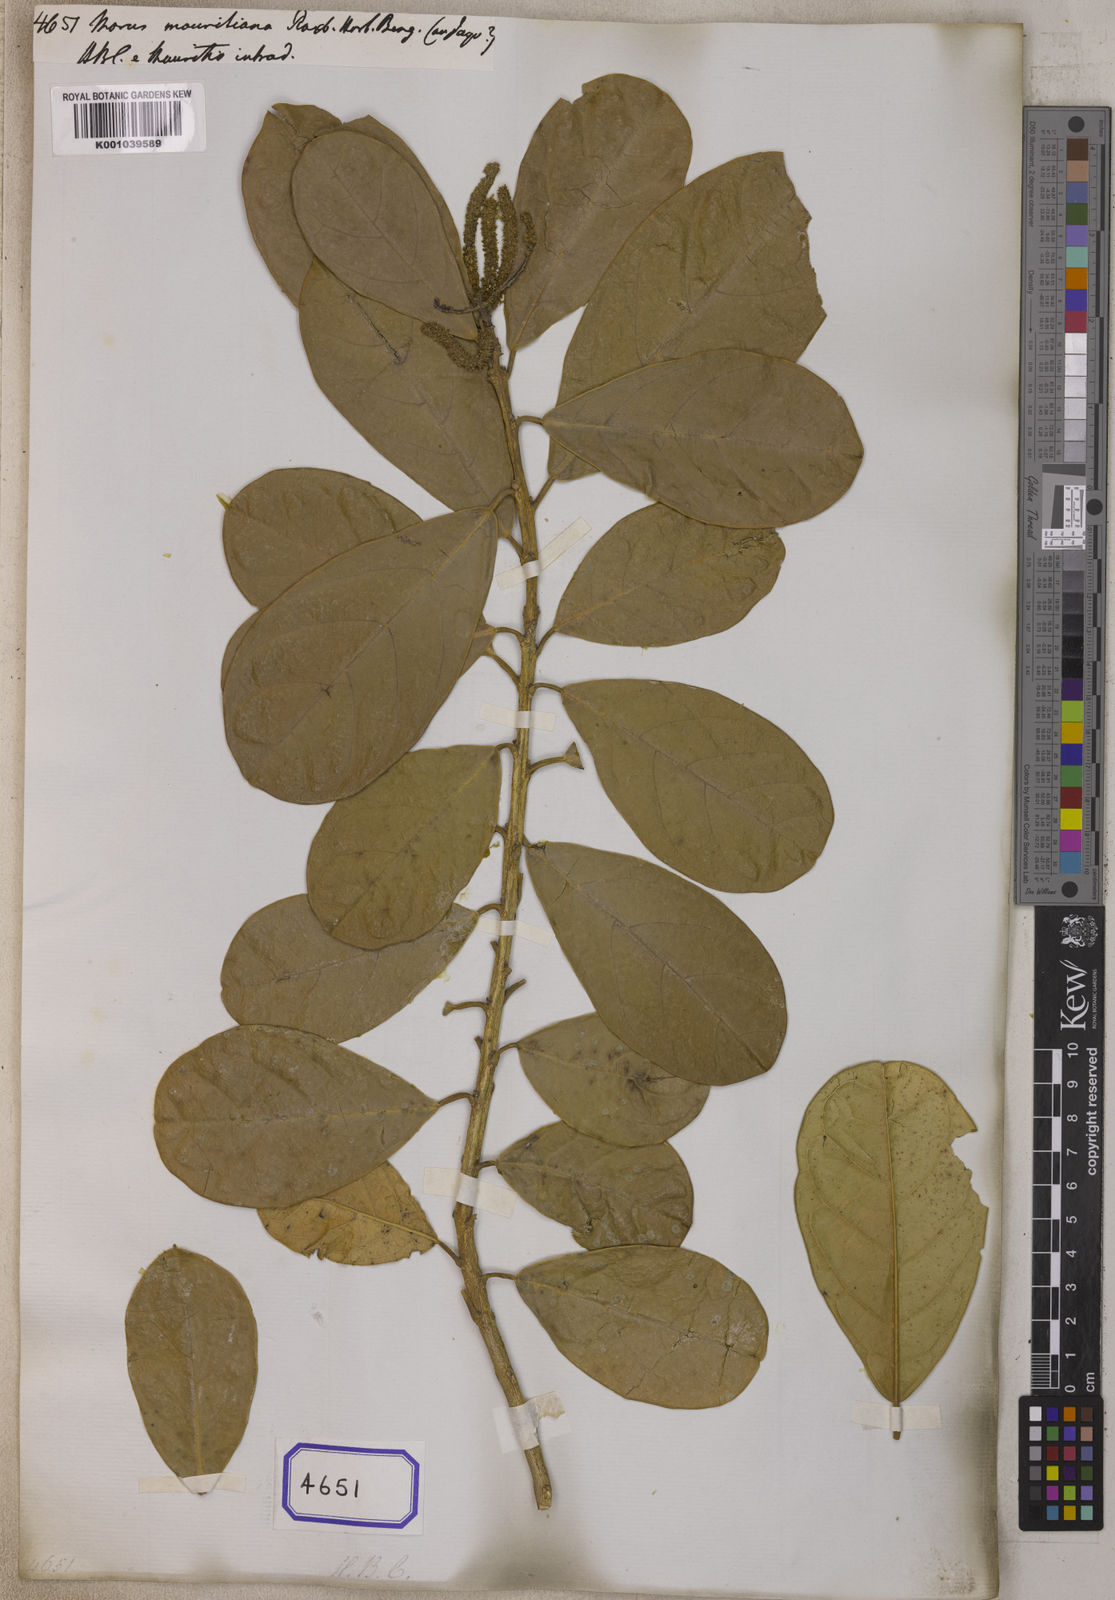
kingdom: Plantae
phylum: Tracheophyta
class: Magnoliopsida
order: Rosales
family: Moraceae
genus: Ampalis
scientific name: Ampalis mauritiana
